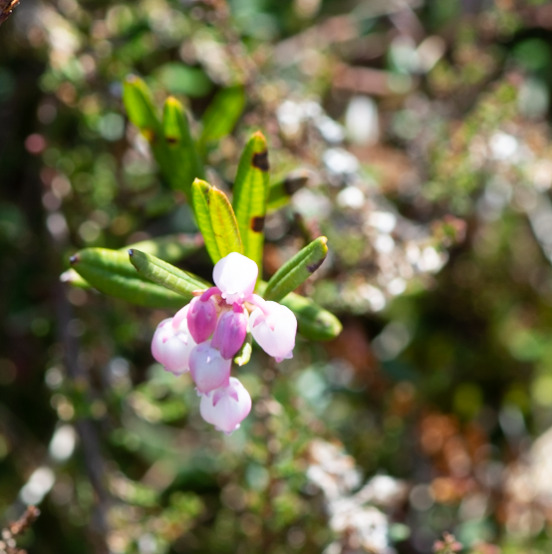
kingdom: Plantae
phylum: Tracheophyta
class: Magnoliopsida
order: Ericales
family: Ericaceae
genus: Andromeda
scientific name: Andromeda polifolia
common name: Rosmarinlyng
